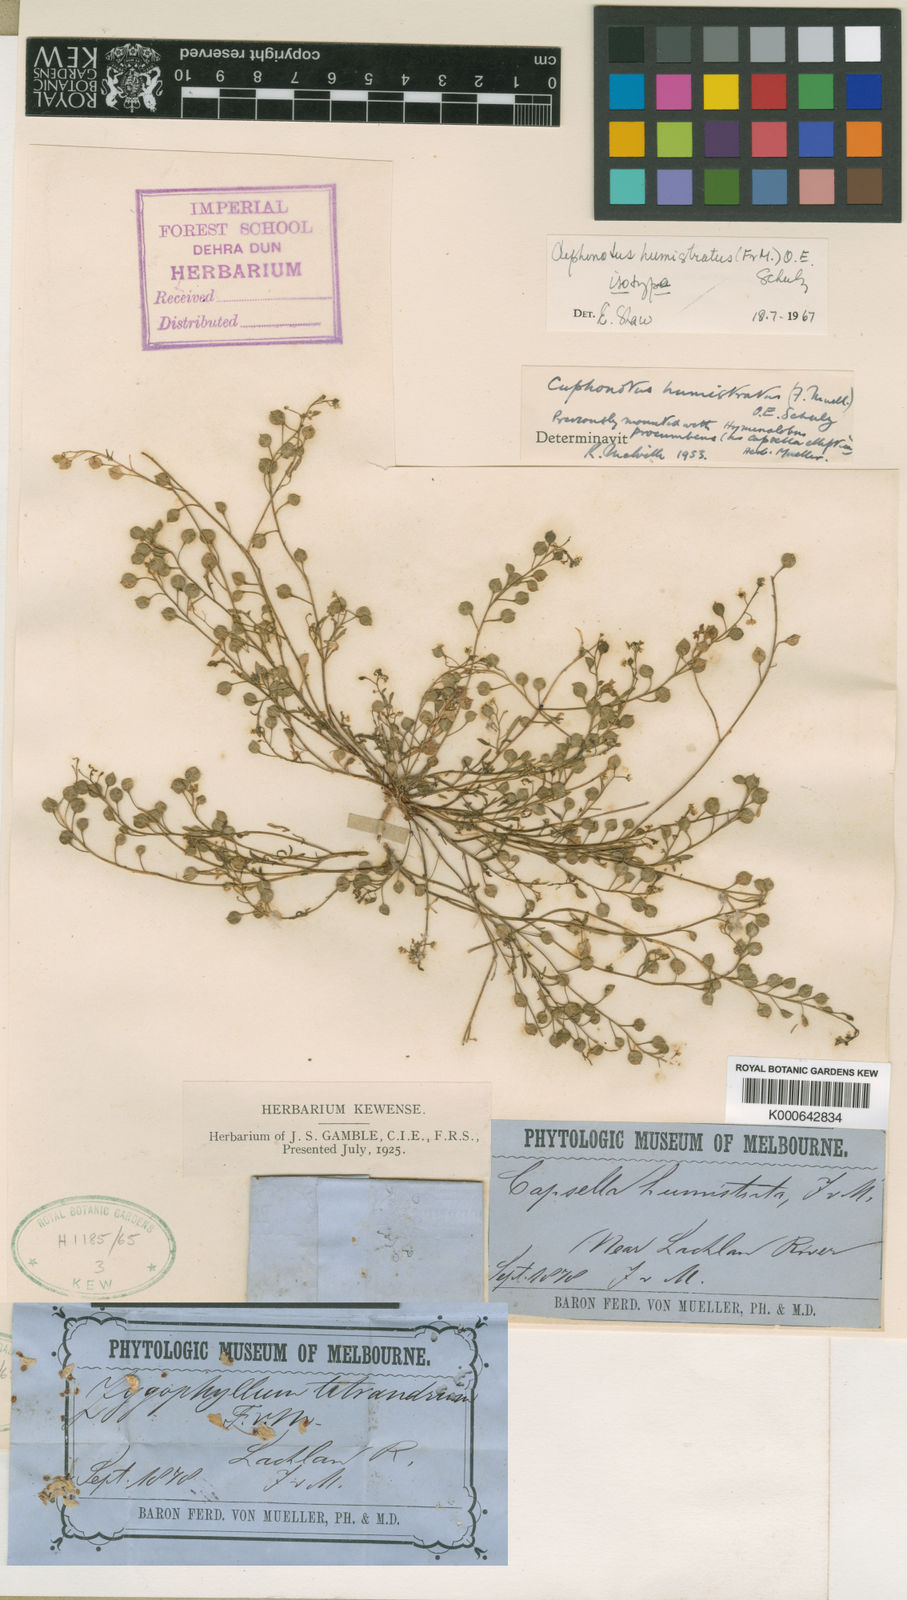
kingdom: Plantae
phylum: Tracheophyta
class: Magnoliopsida
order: Brassicales
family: Brassicaceae
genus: Cuphonotus
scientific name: Cuphonotus humistratus
